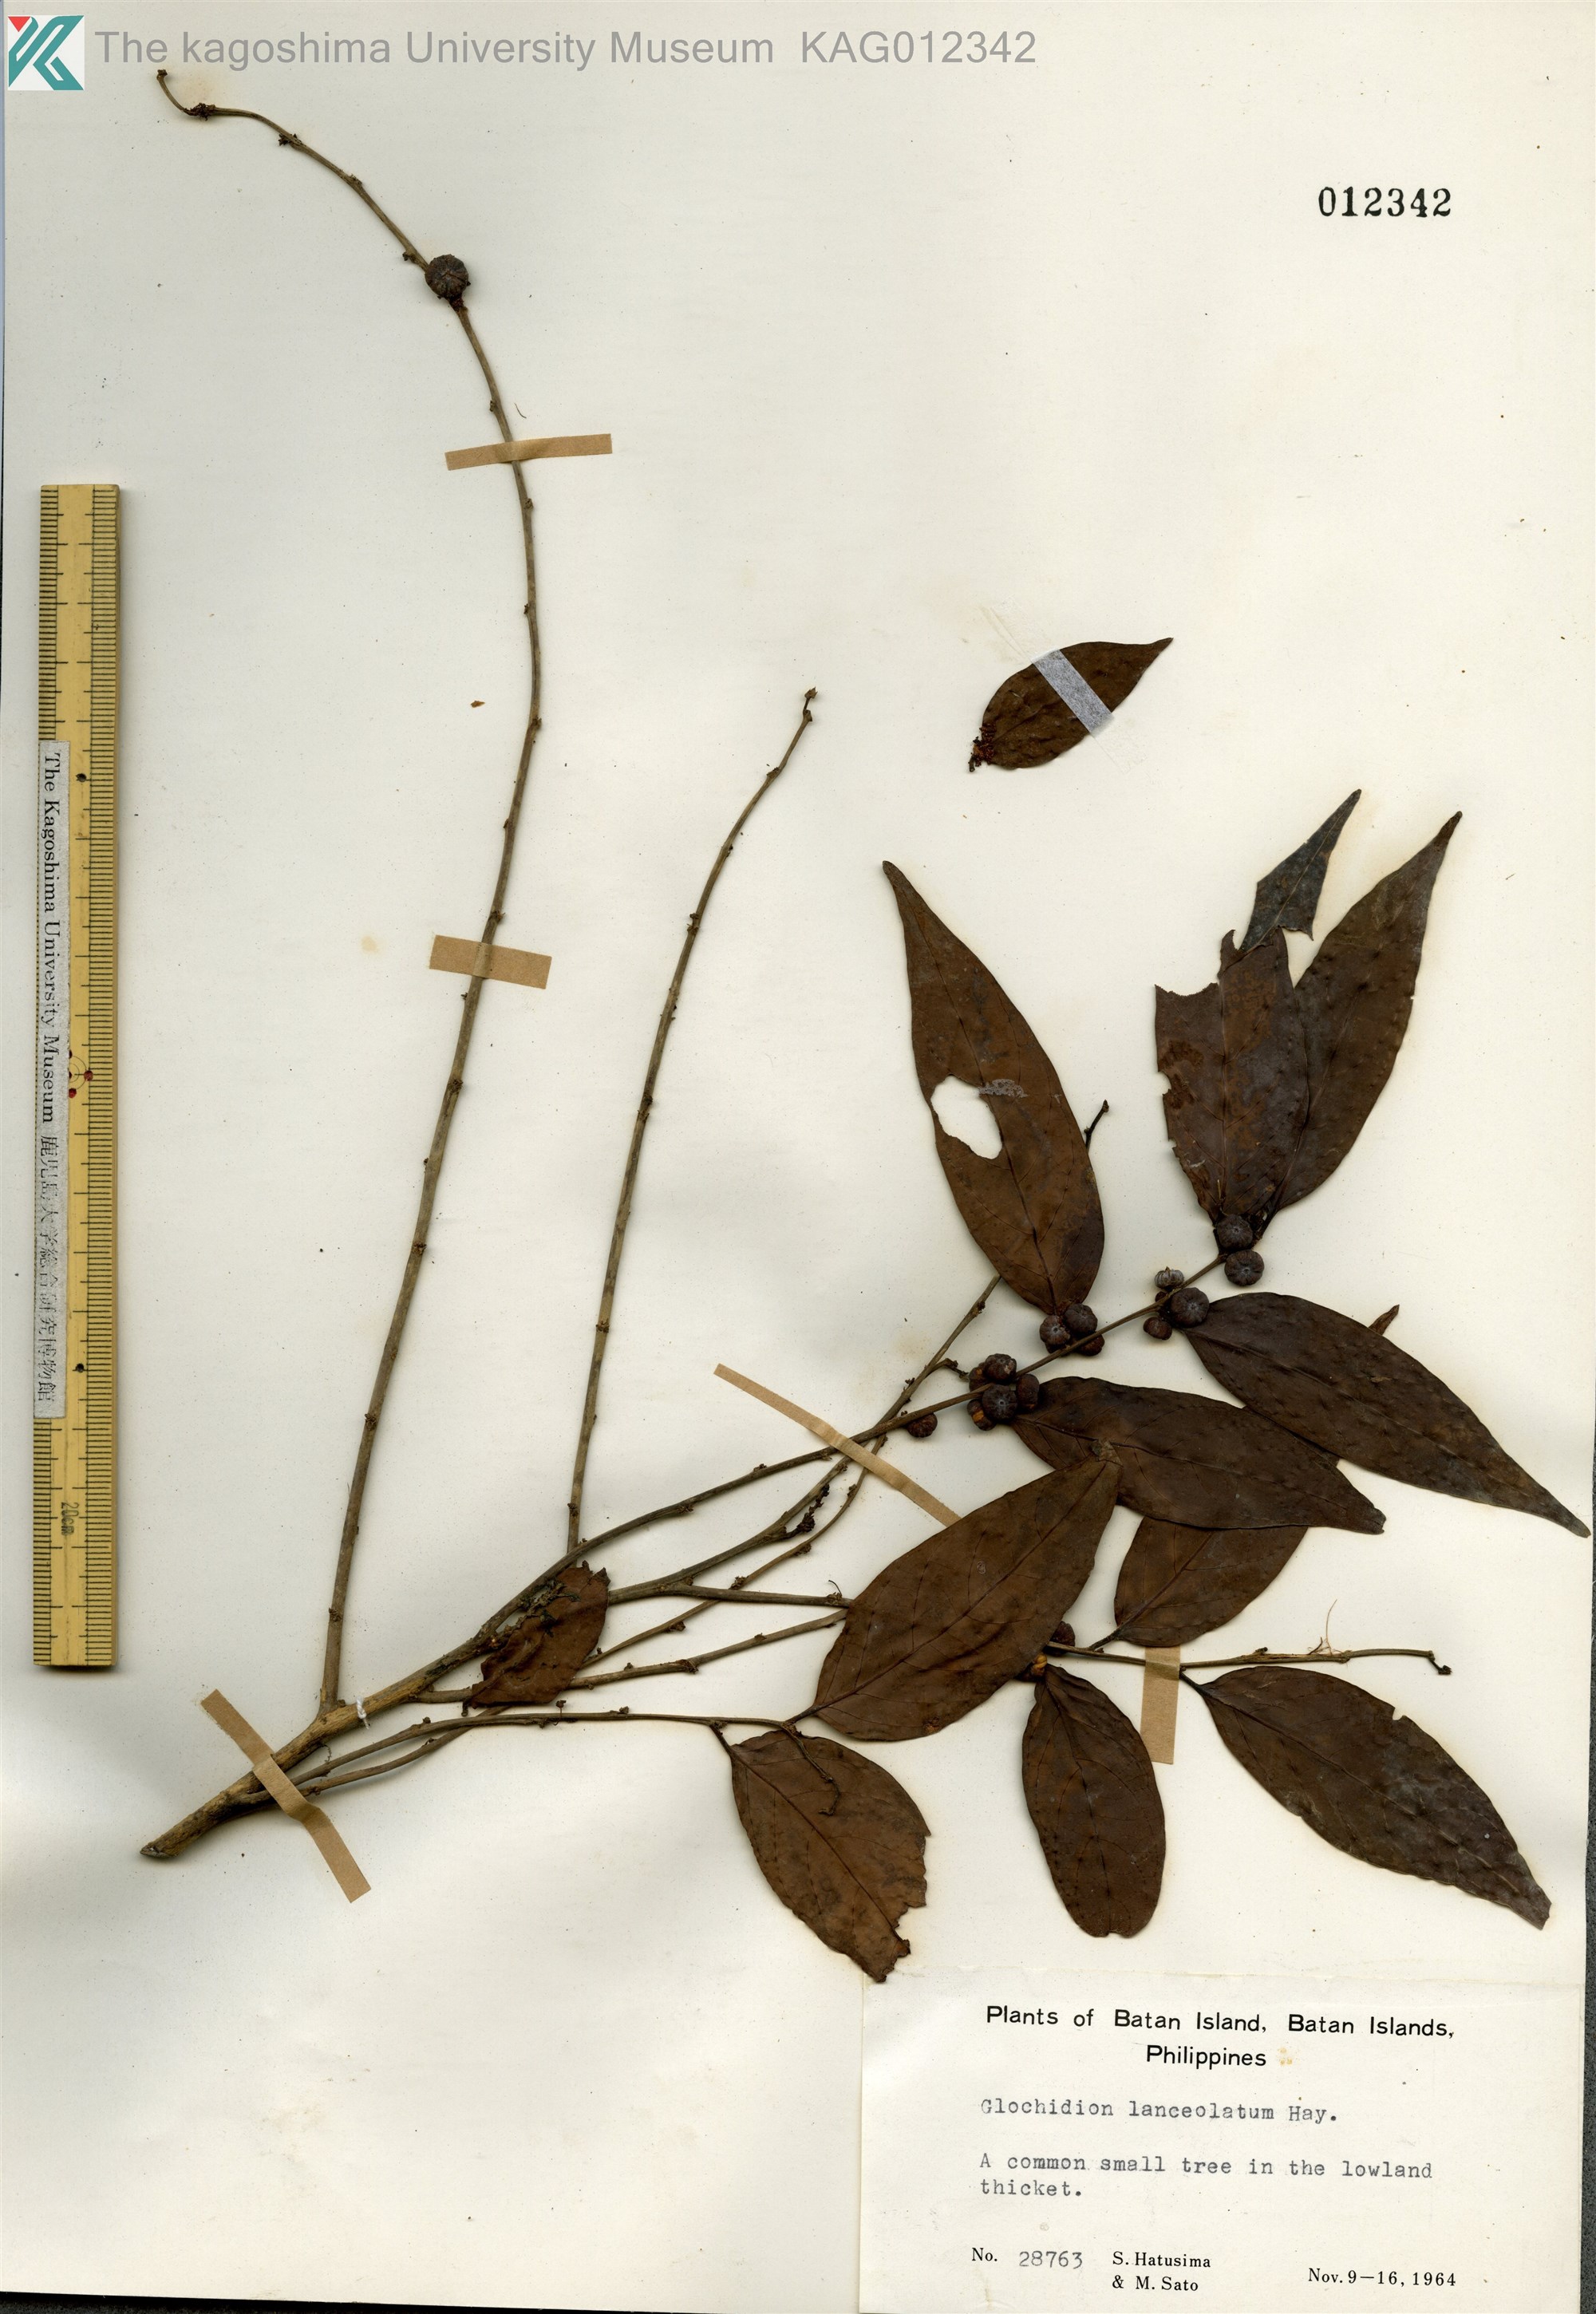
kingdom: Plantae
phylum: Tracheophyta
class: Magnoliopsida
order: Malpighiales
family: Phyllanthaceae
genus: Glochidion
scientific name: Glochidion lanceolatum
